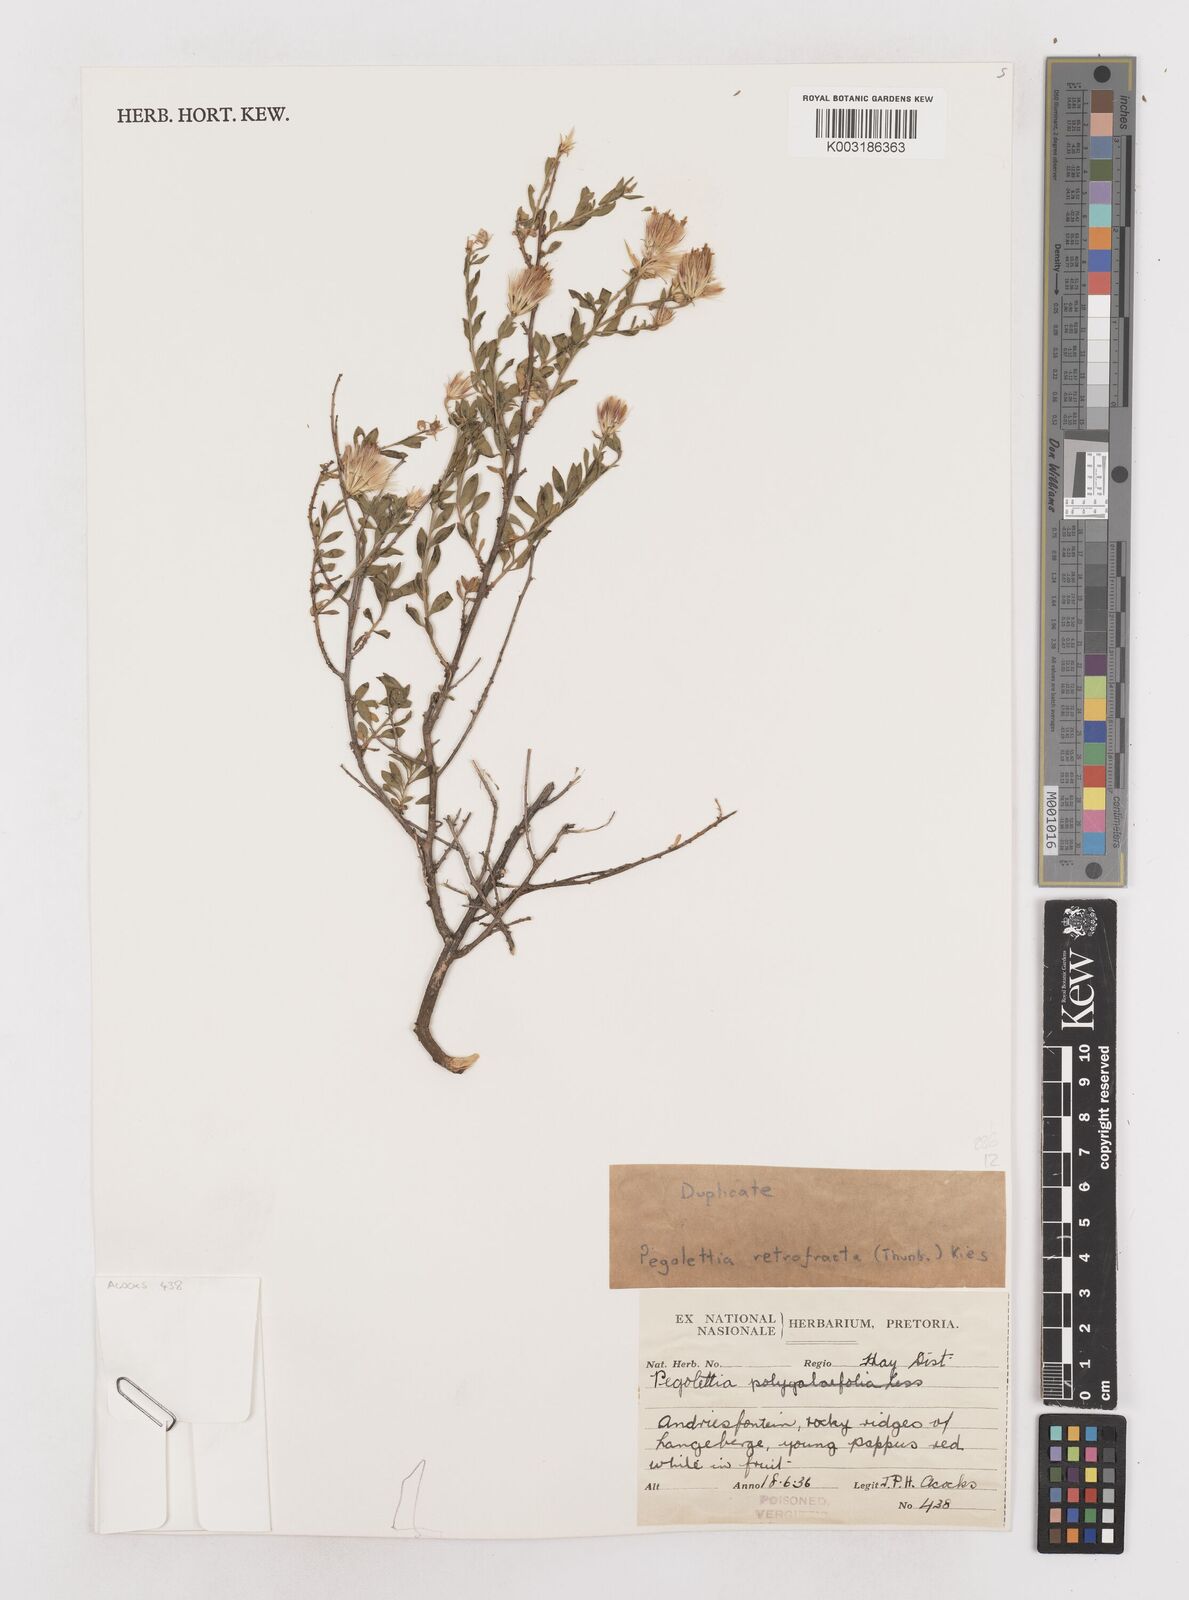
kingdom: Plantae
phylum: Tracheophyta
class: Magnoliopsida
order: Asterales
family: Asteraceae
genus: Pegolettia
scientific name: Pegolettia retrofracta
